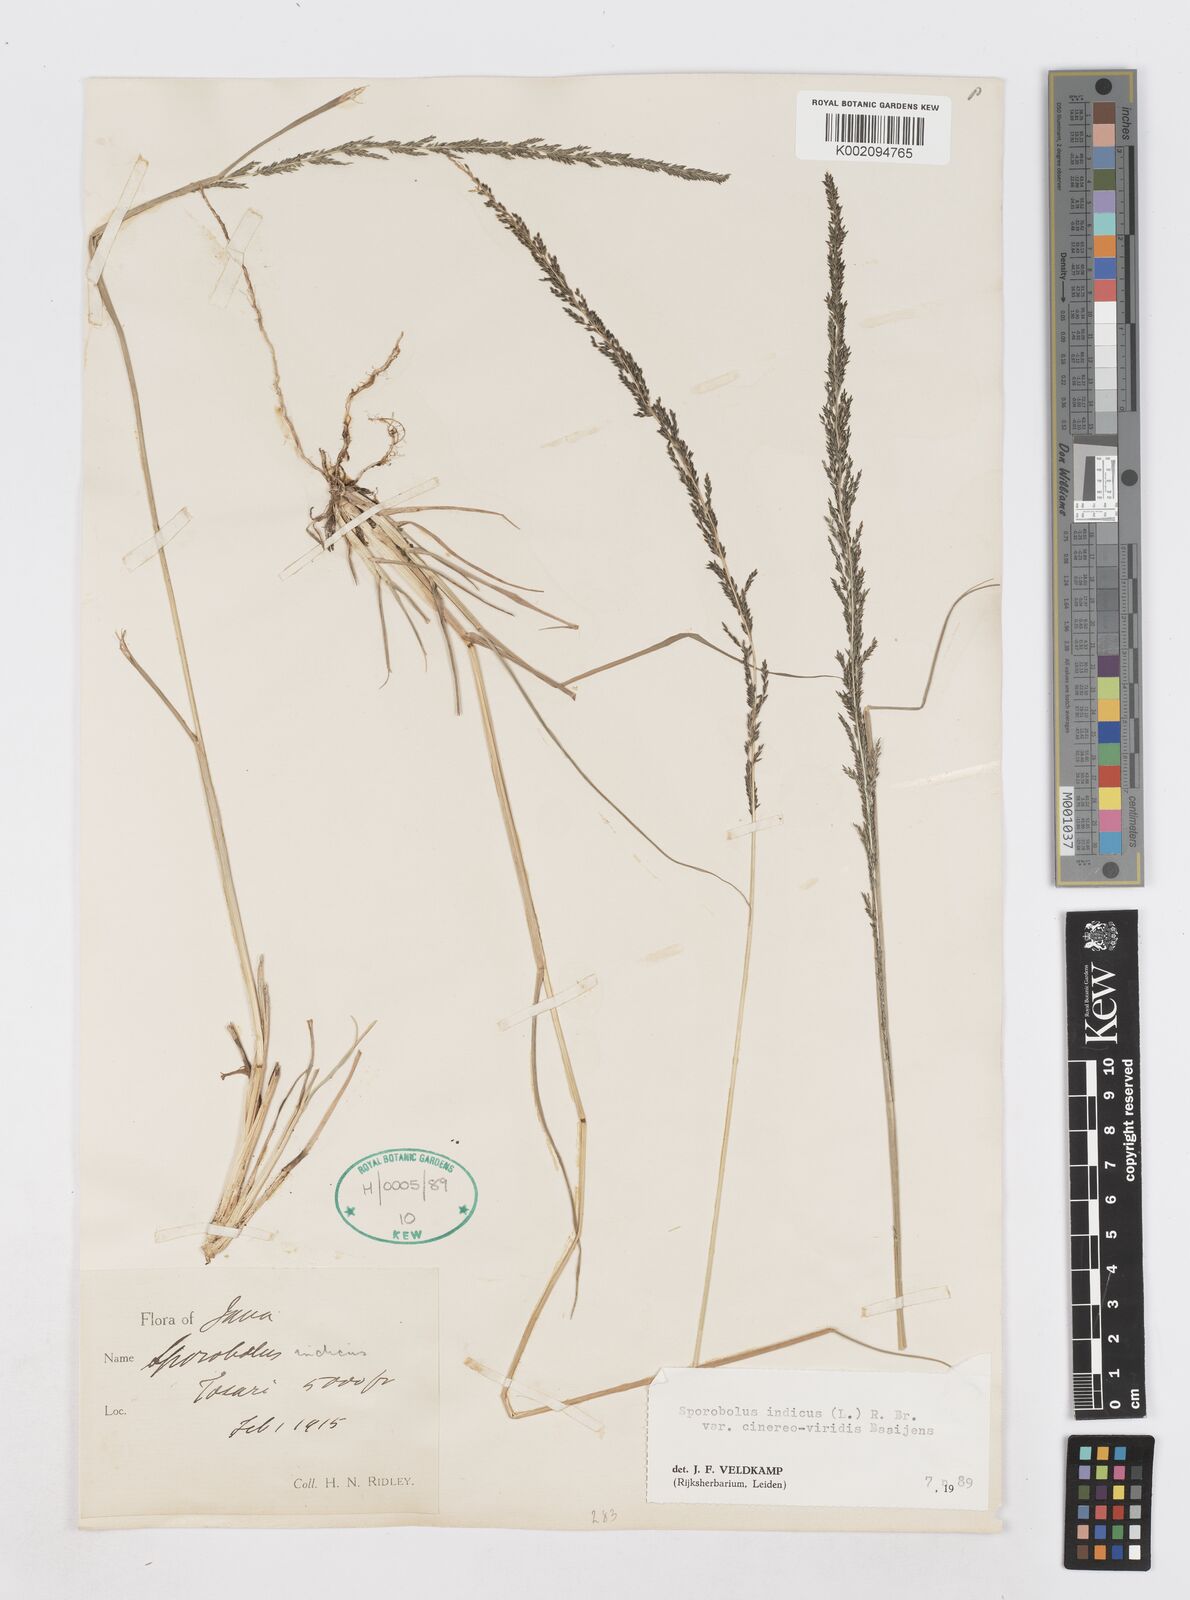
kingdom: Plantae
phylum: Tracheophyta
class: Liliopsida
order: Poales
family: Poaceae
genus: Sporobolus
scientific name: Sporobolus fertilis
